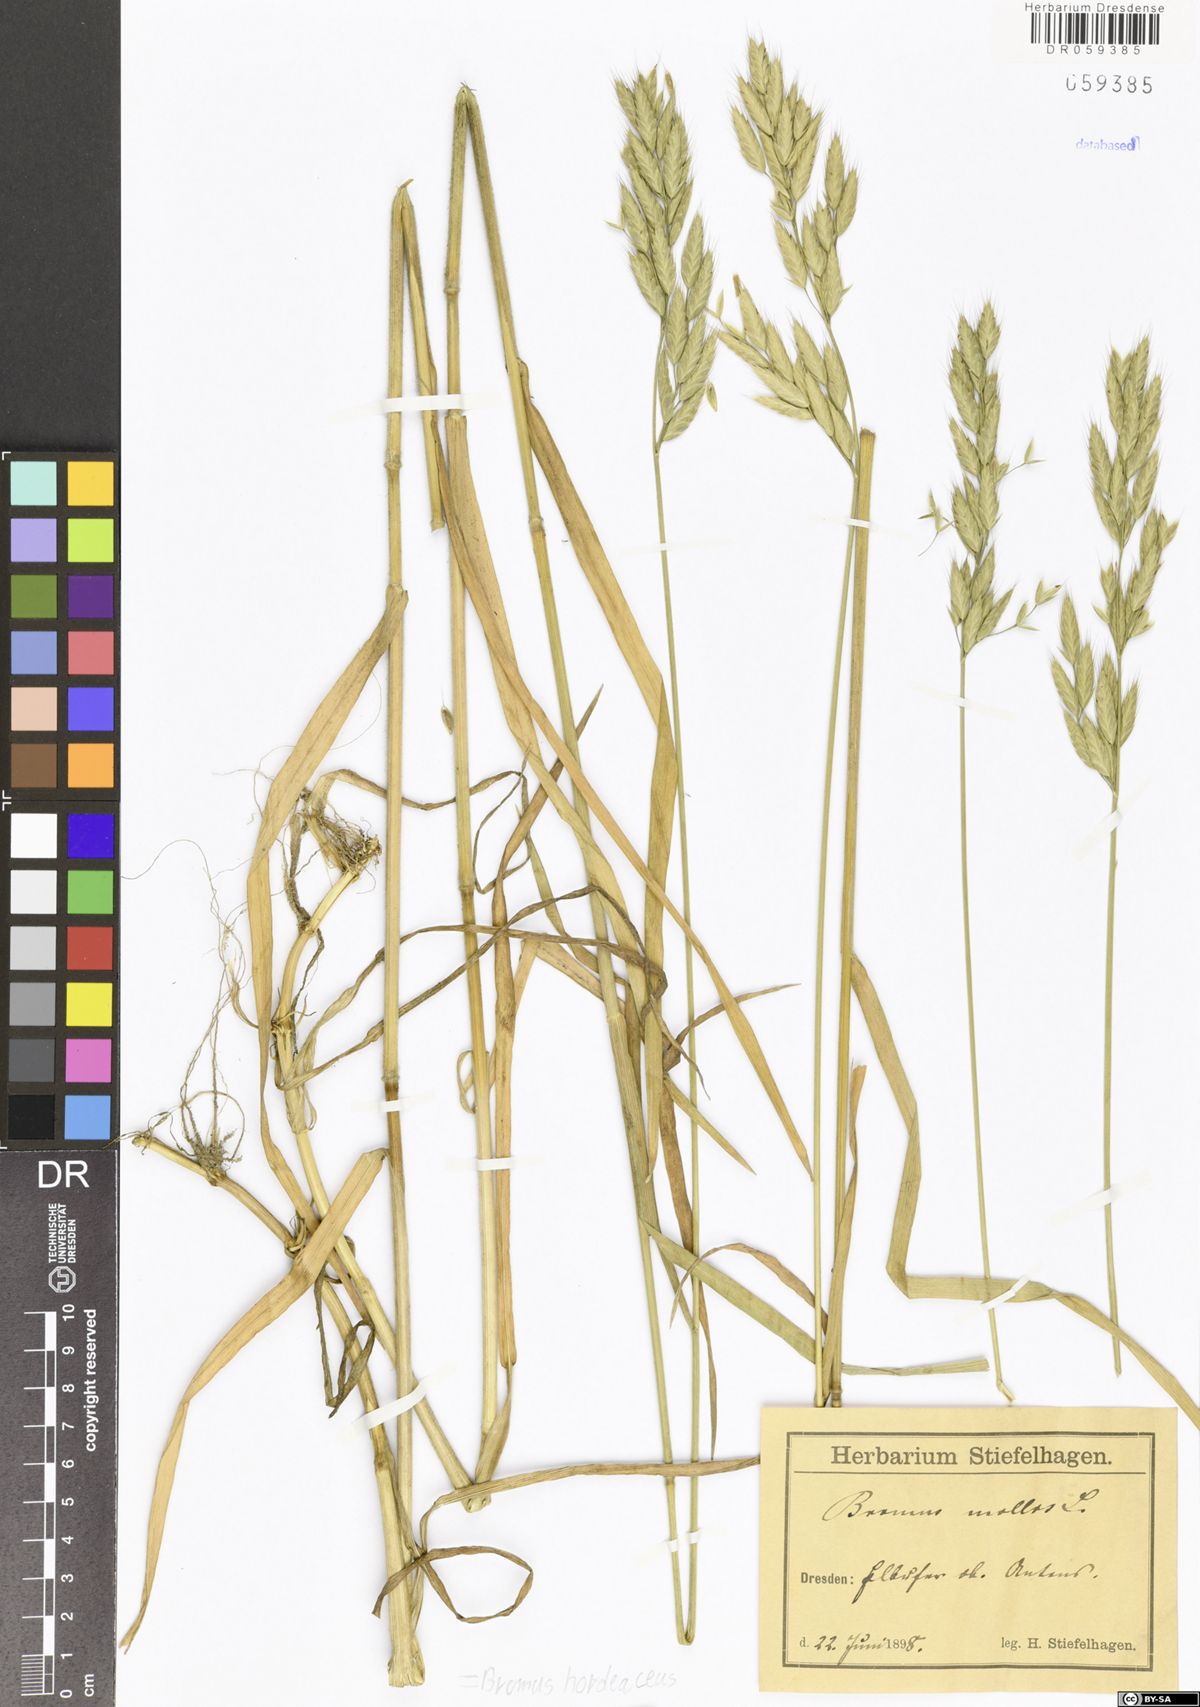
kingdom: Plantae
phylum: Tracheophyta
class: Liliopsida
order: Poales
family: Poaceae
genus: Bromus
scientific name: Bromus hordeaceus
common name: Soft brome
